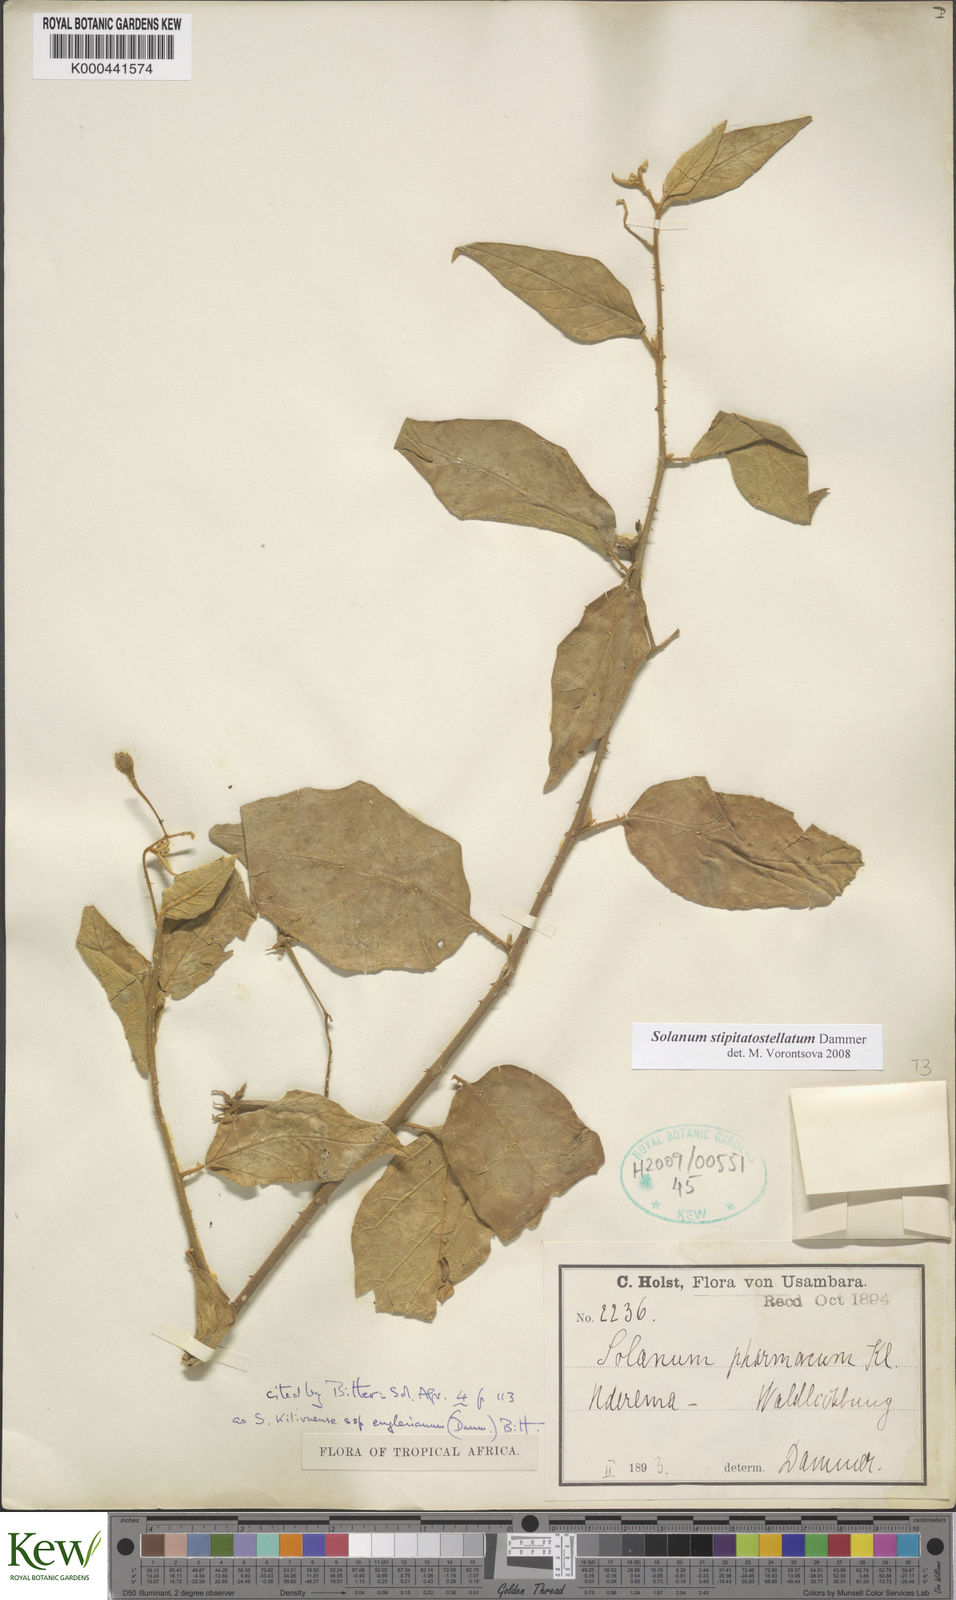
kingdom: Plantae
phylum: Tracheophyta
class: Magnoliopsida
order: Solanales
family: Solanaceae
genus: Solanum
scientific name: Solanum stipitatostellatum
